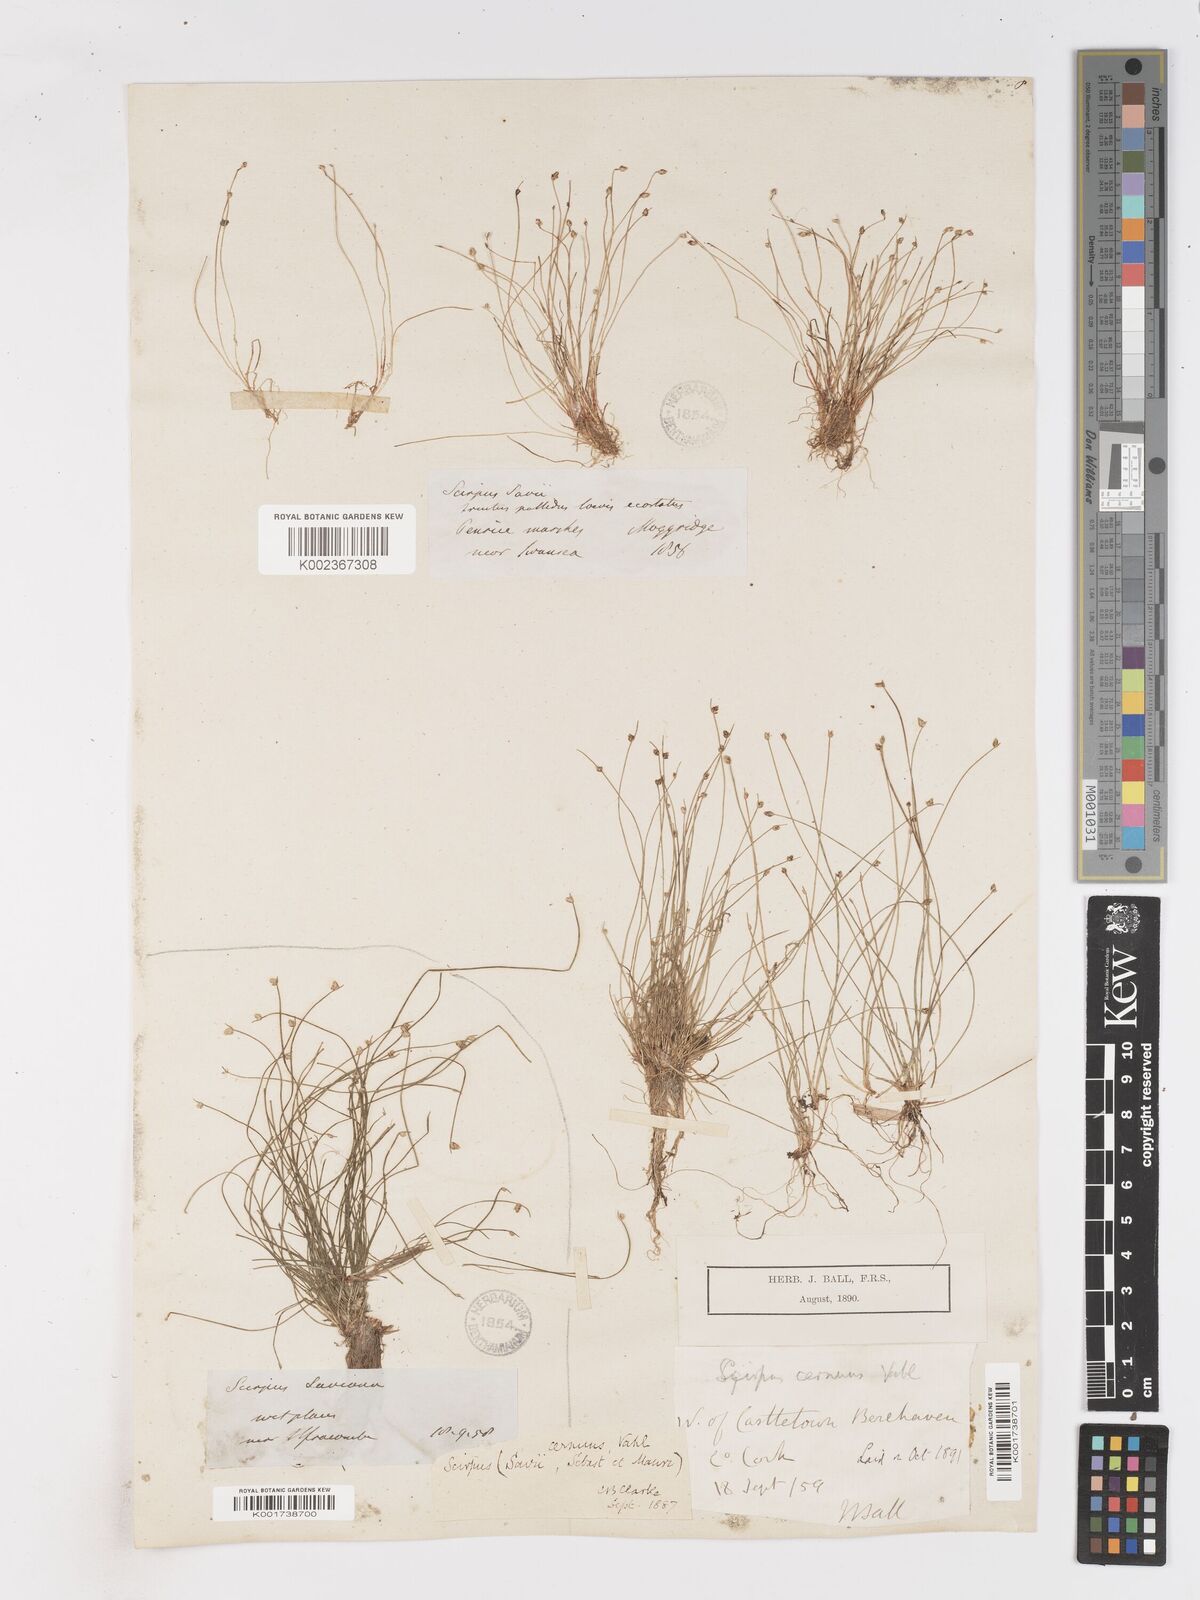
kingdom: Plantae
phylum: Tracheophyta
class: Liliopsida
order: Poales
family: Cyperaceae
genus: Isolepis
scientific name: Isolepis cernua
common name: Slender club-rush
